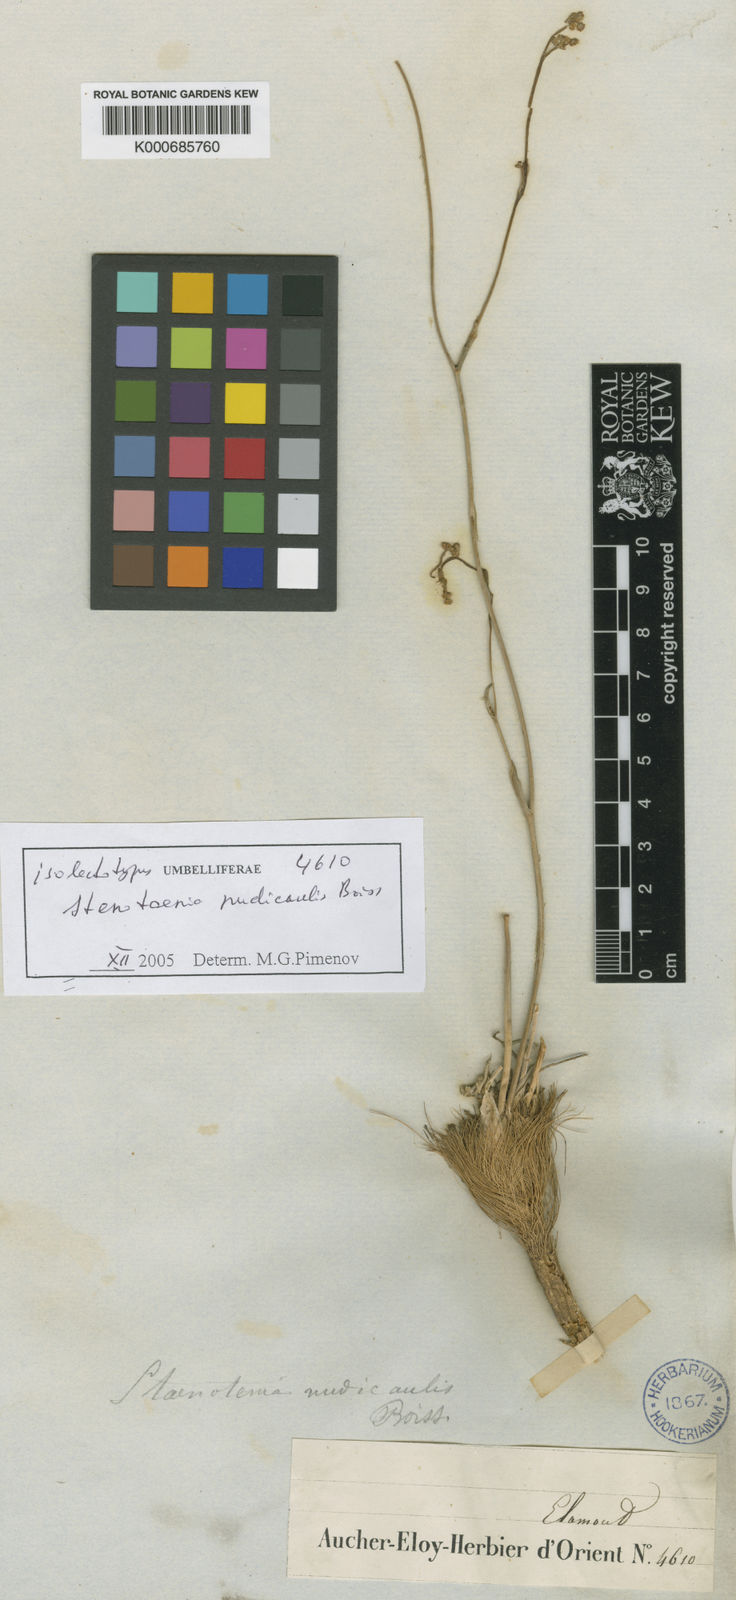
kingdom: Plantae
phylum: Tracheophyta
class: Magnoliopsida
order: Apiales
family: Apiaceae
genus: Stenotaenia
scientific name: Stenotaenia nudicaulis
